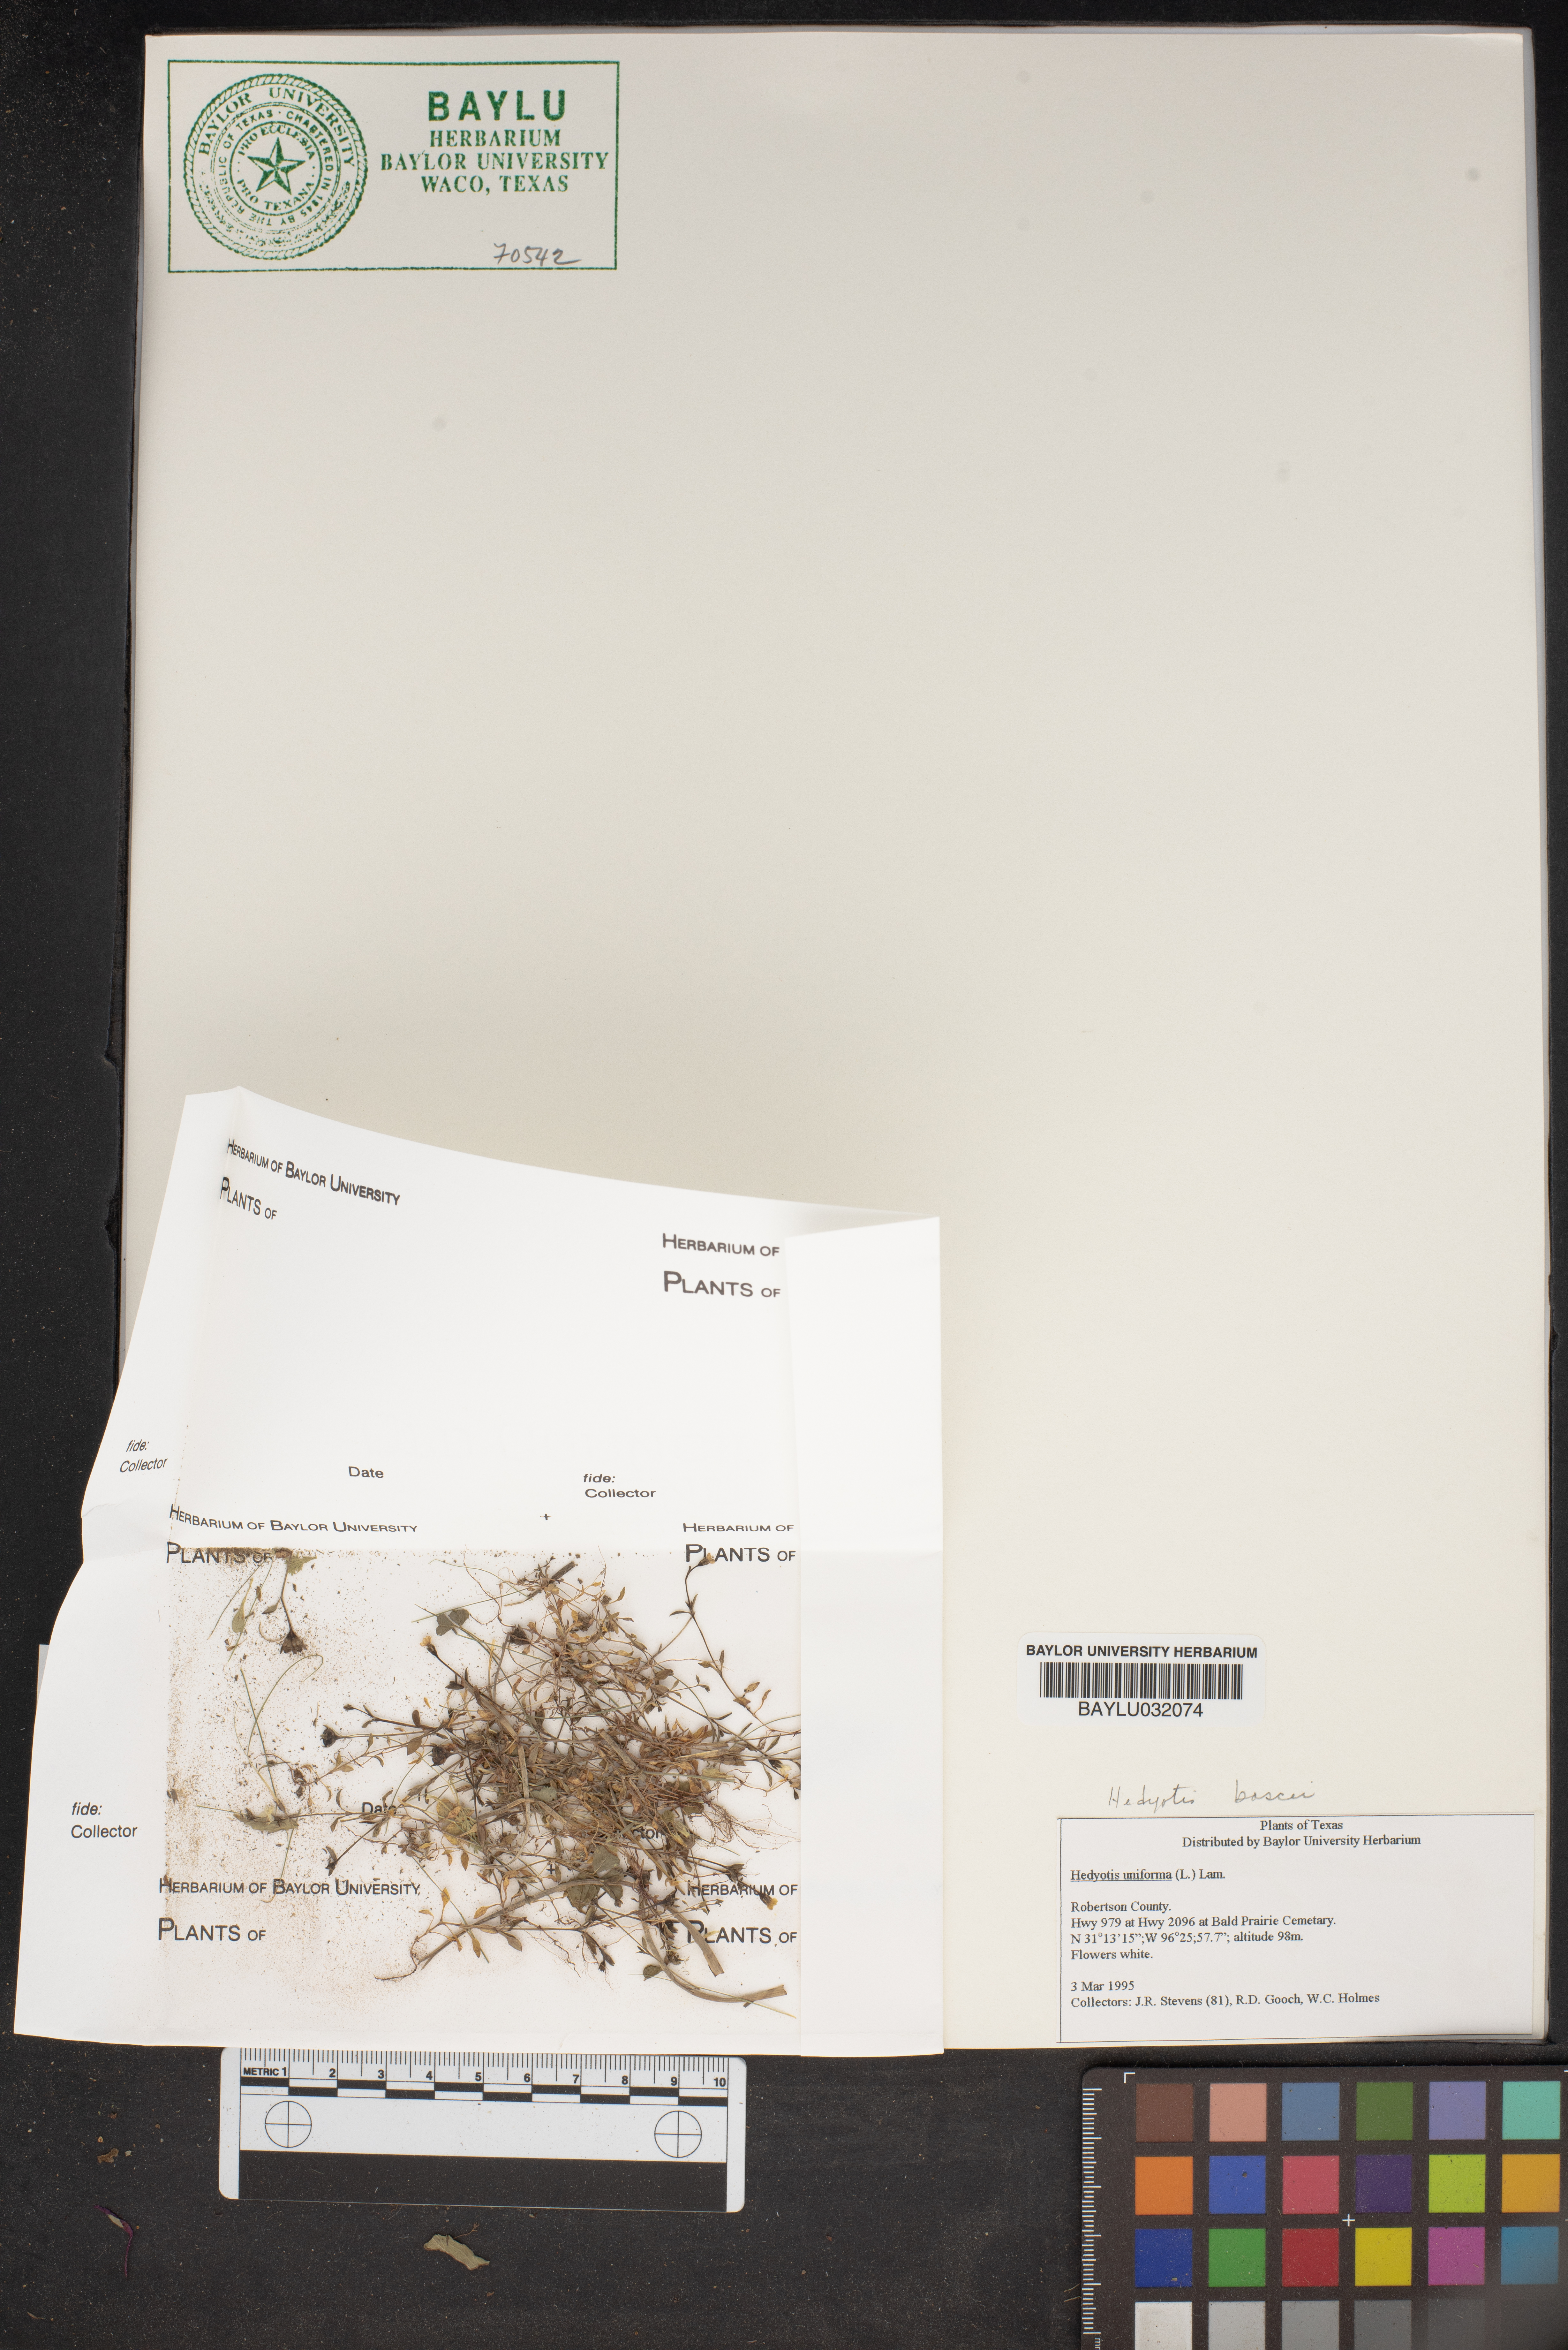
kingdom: Plantae
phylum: Tracheophyta
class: Magnoliopsida
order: Gentianales
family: Rubiaceae
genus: Edrastima
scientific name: Edrastima uniflora
